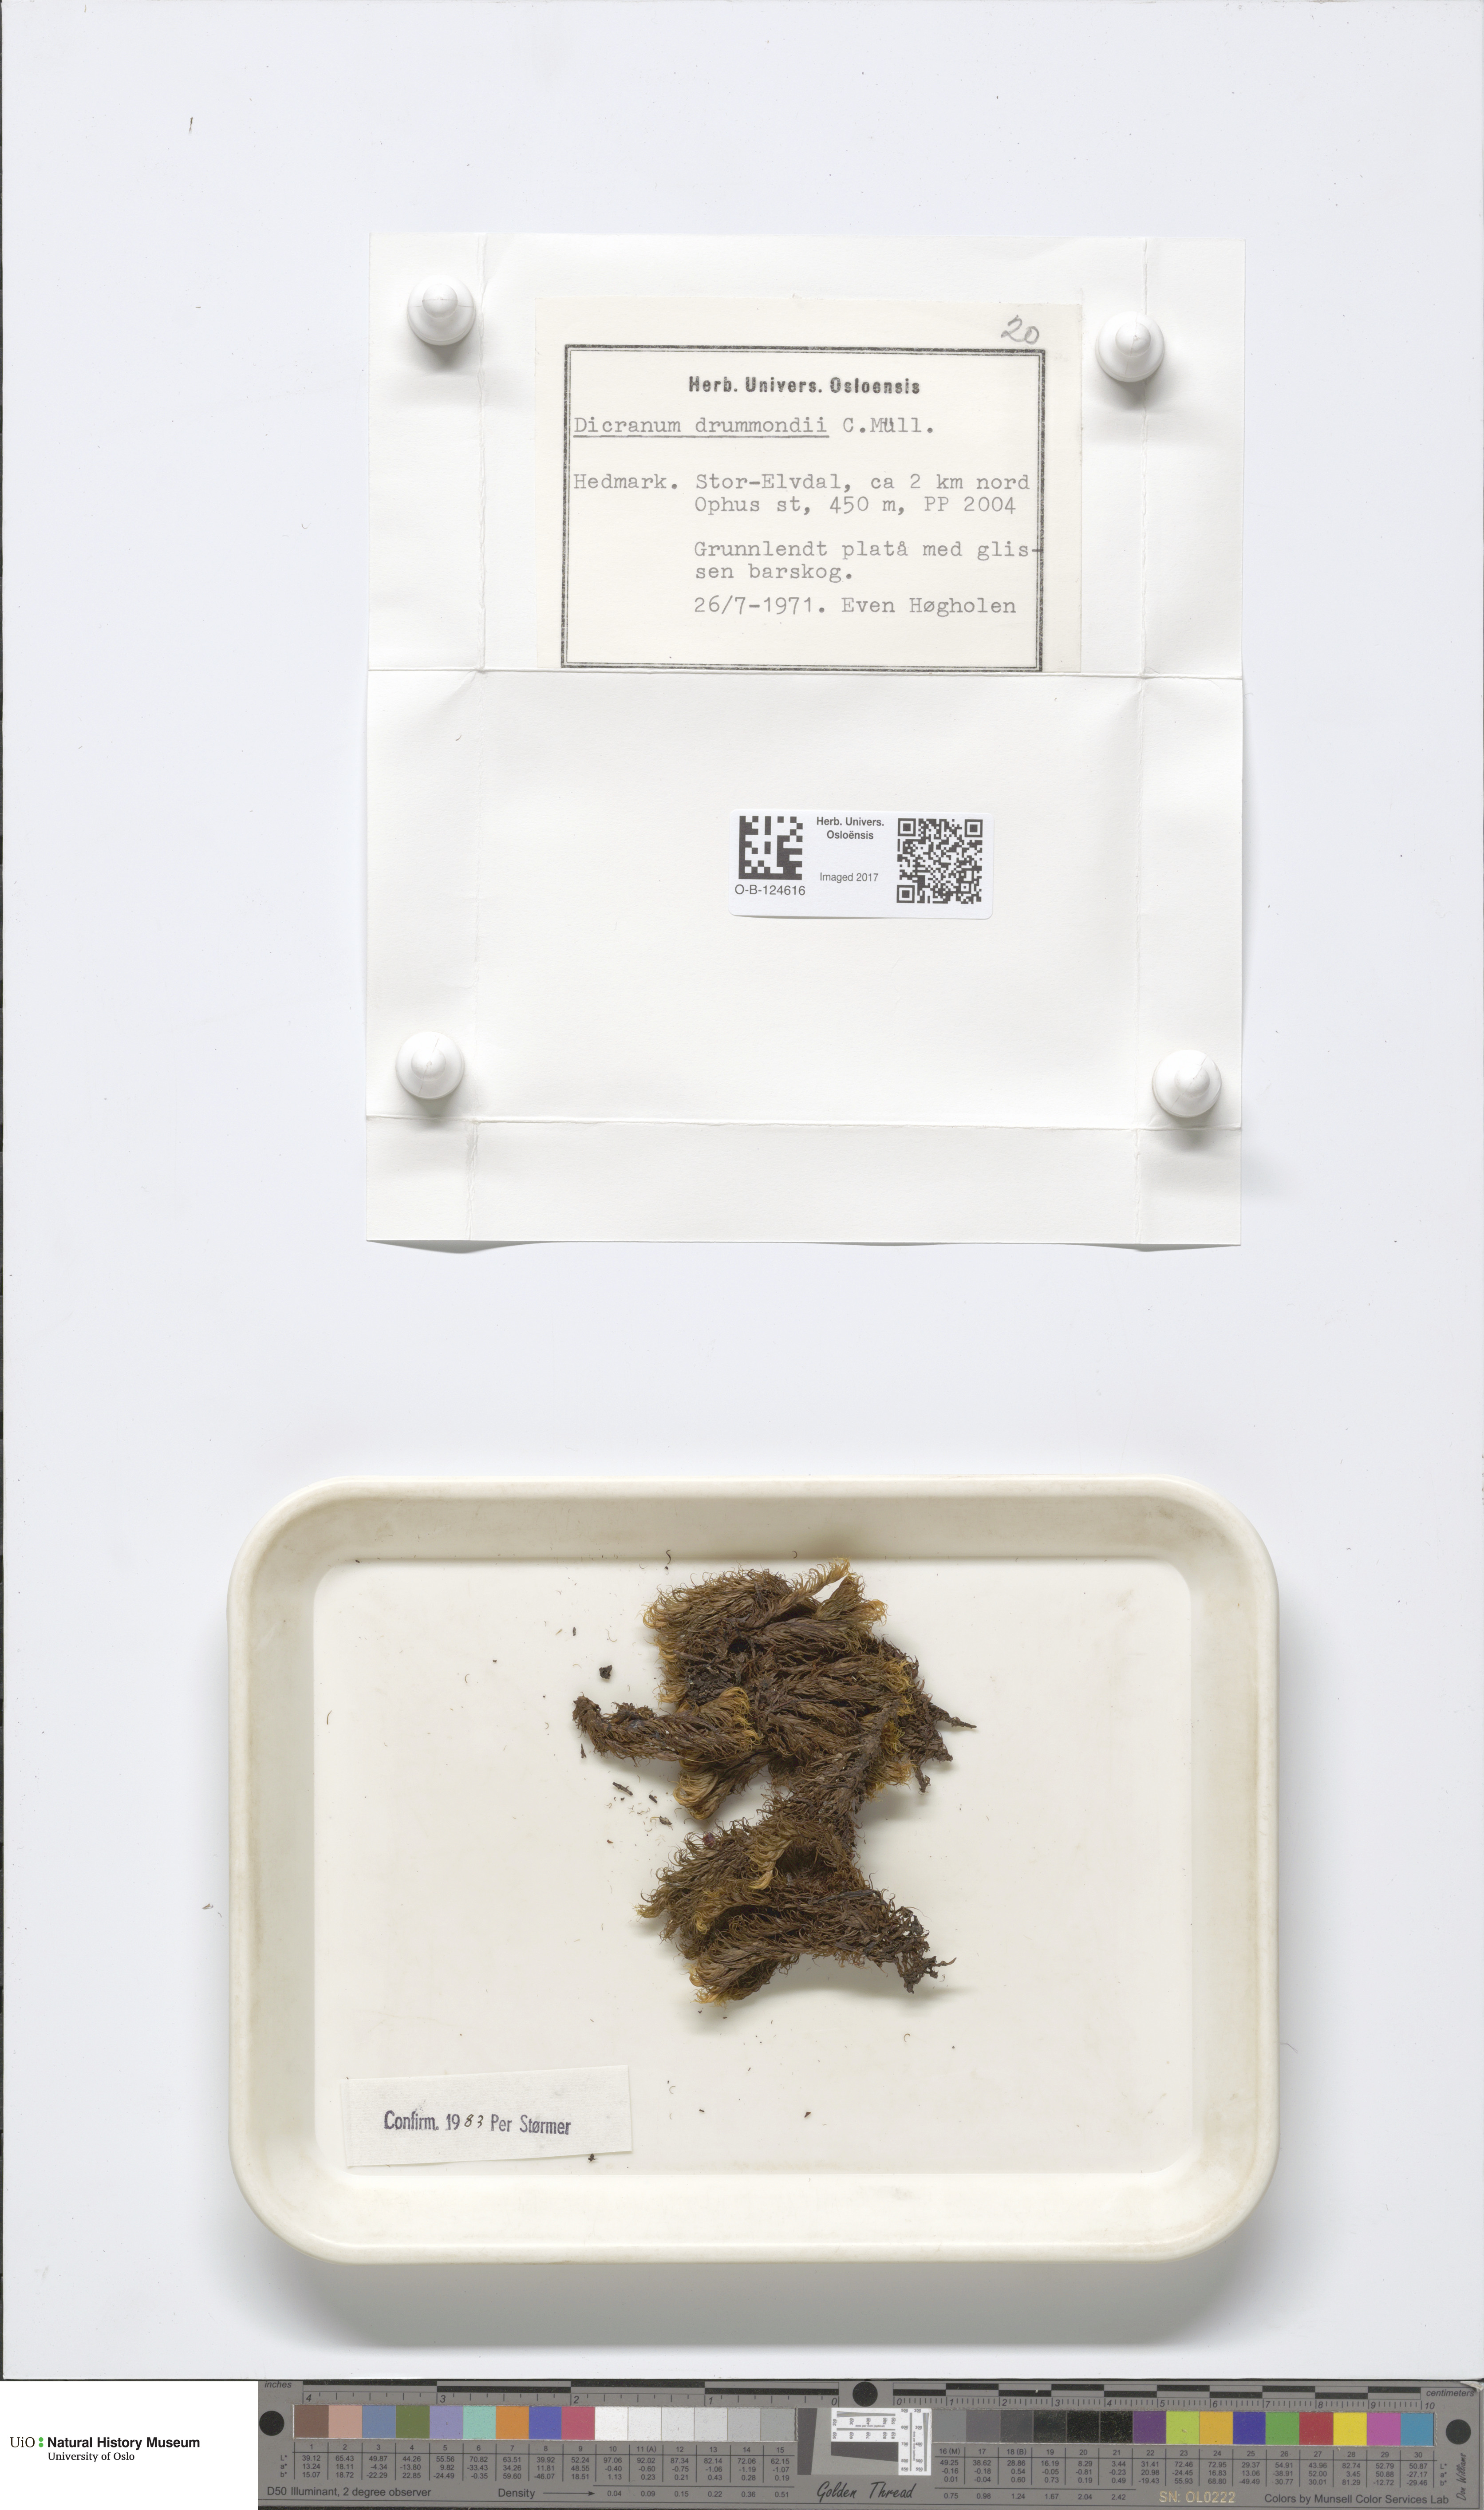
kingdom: Plantae
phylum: Bryophyta
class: Bryopsida
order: Dicranales
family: Dicranaceae
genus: Dicranum
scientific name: Dicranum drummondii
